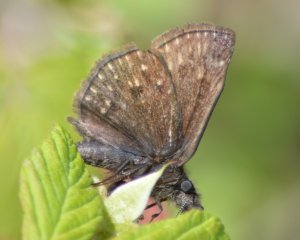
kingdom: Animalia
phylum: Arthropoda
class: Insecta
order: Lepidoptera
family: Hesperiidae
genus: Erynnis
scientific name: Erynnis icelus
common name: Dreamy Duskywing
